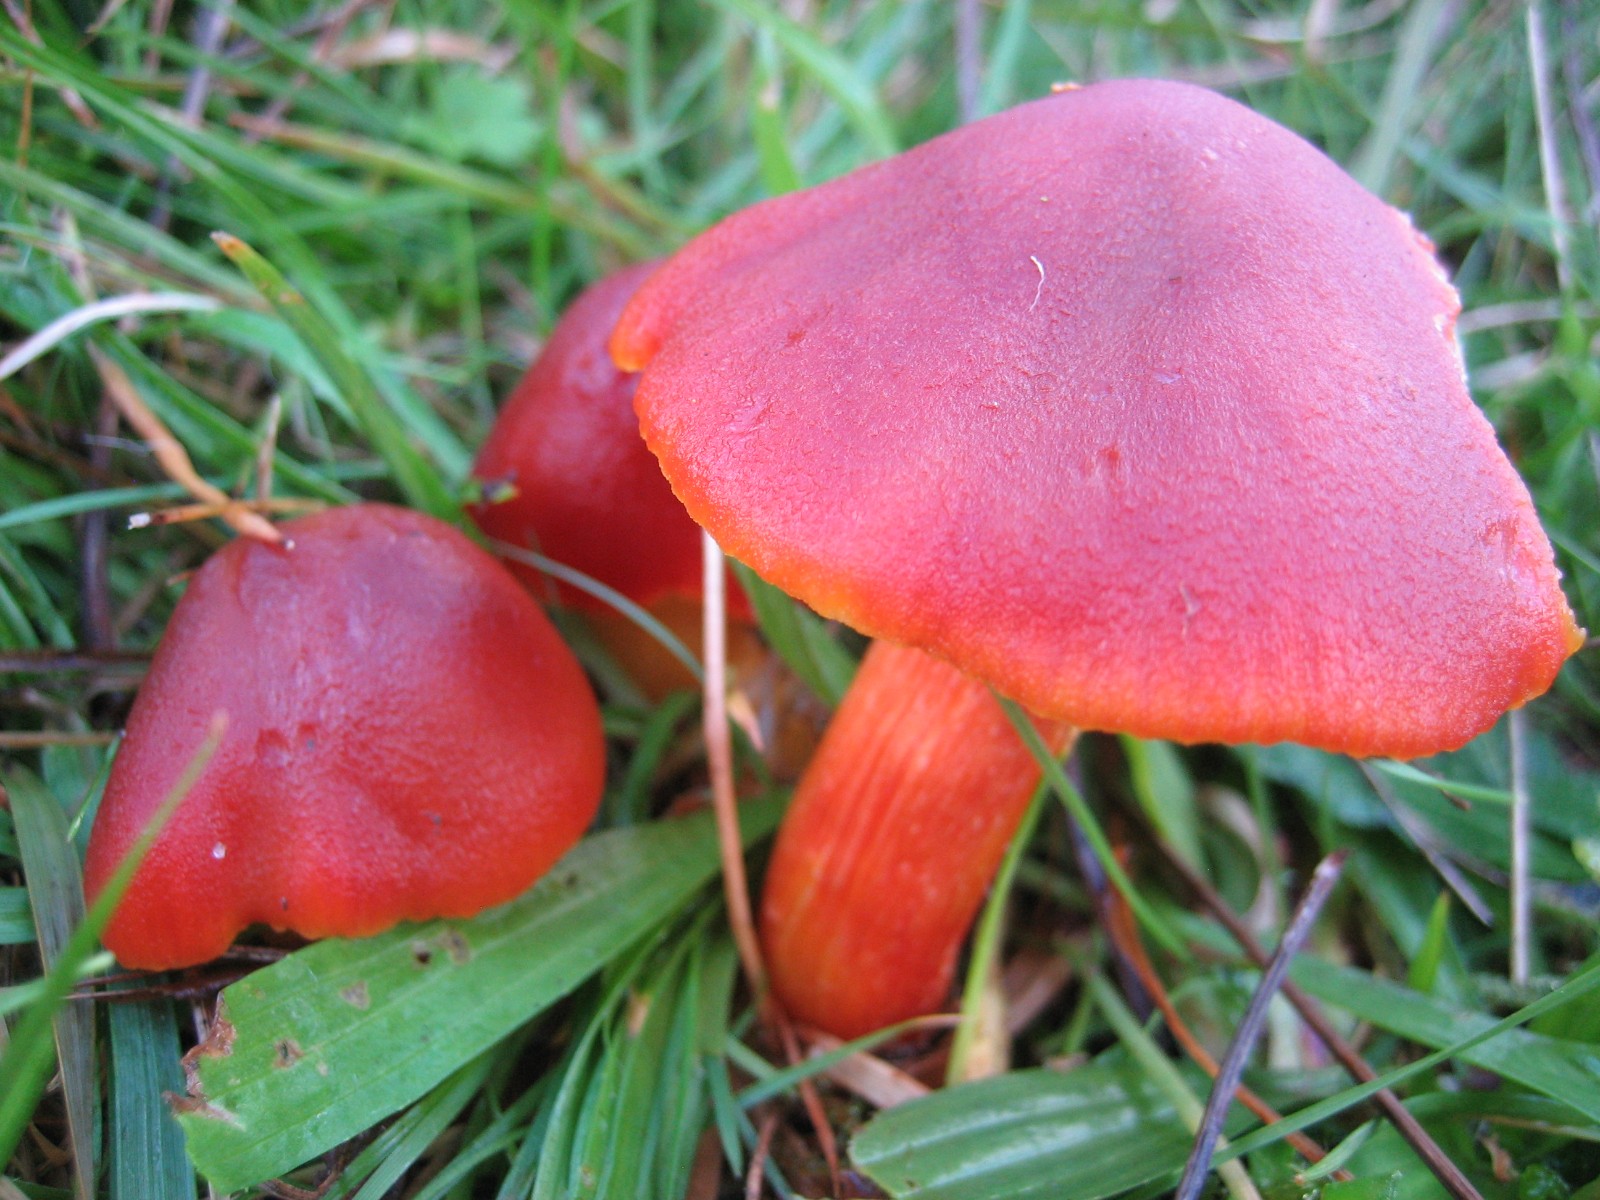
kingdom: Fungi
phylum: Basidiomycota
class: Agaricomycetes
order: Agaricales
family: Hygrophoraceae
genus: Hygrocybe
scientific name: Hygrocybe punicea
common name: skarlagen-vokshat
